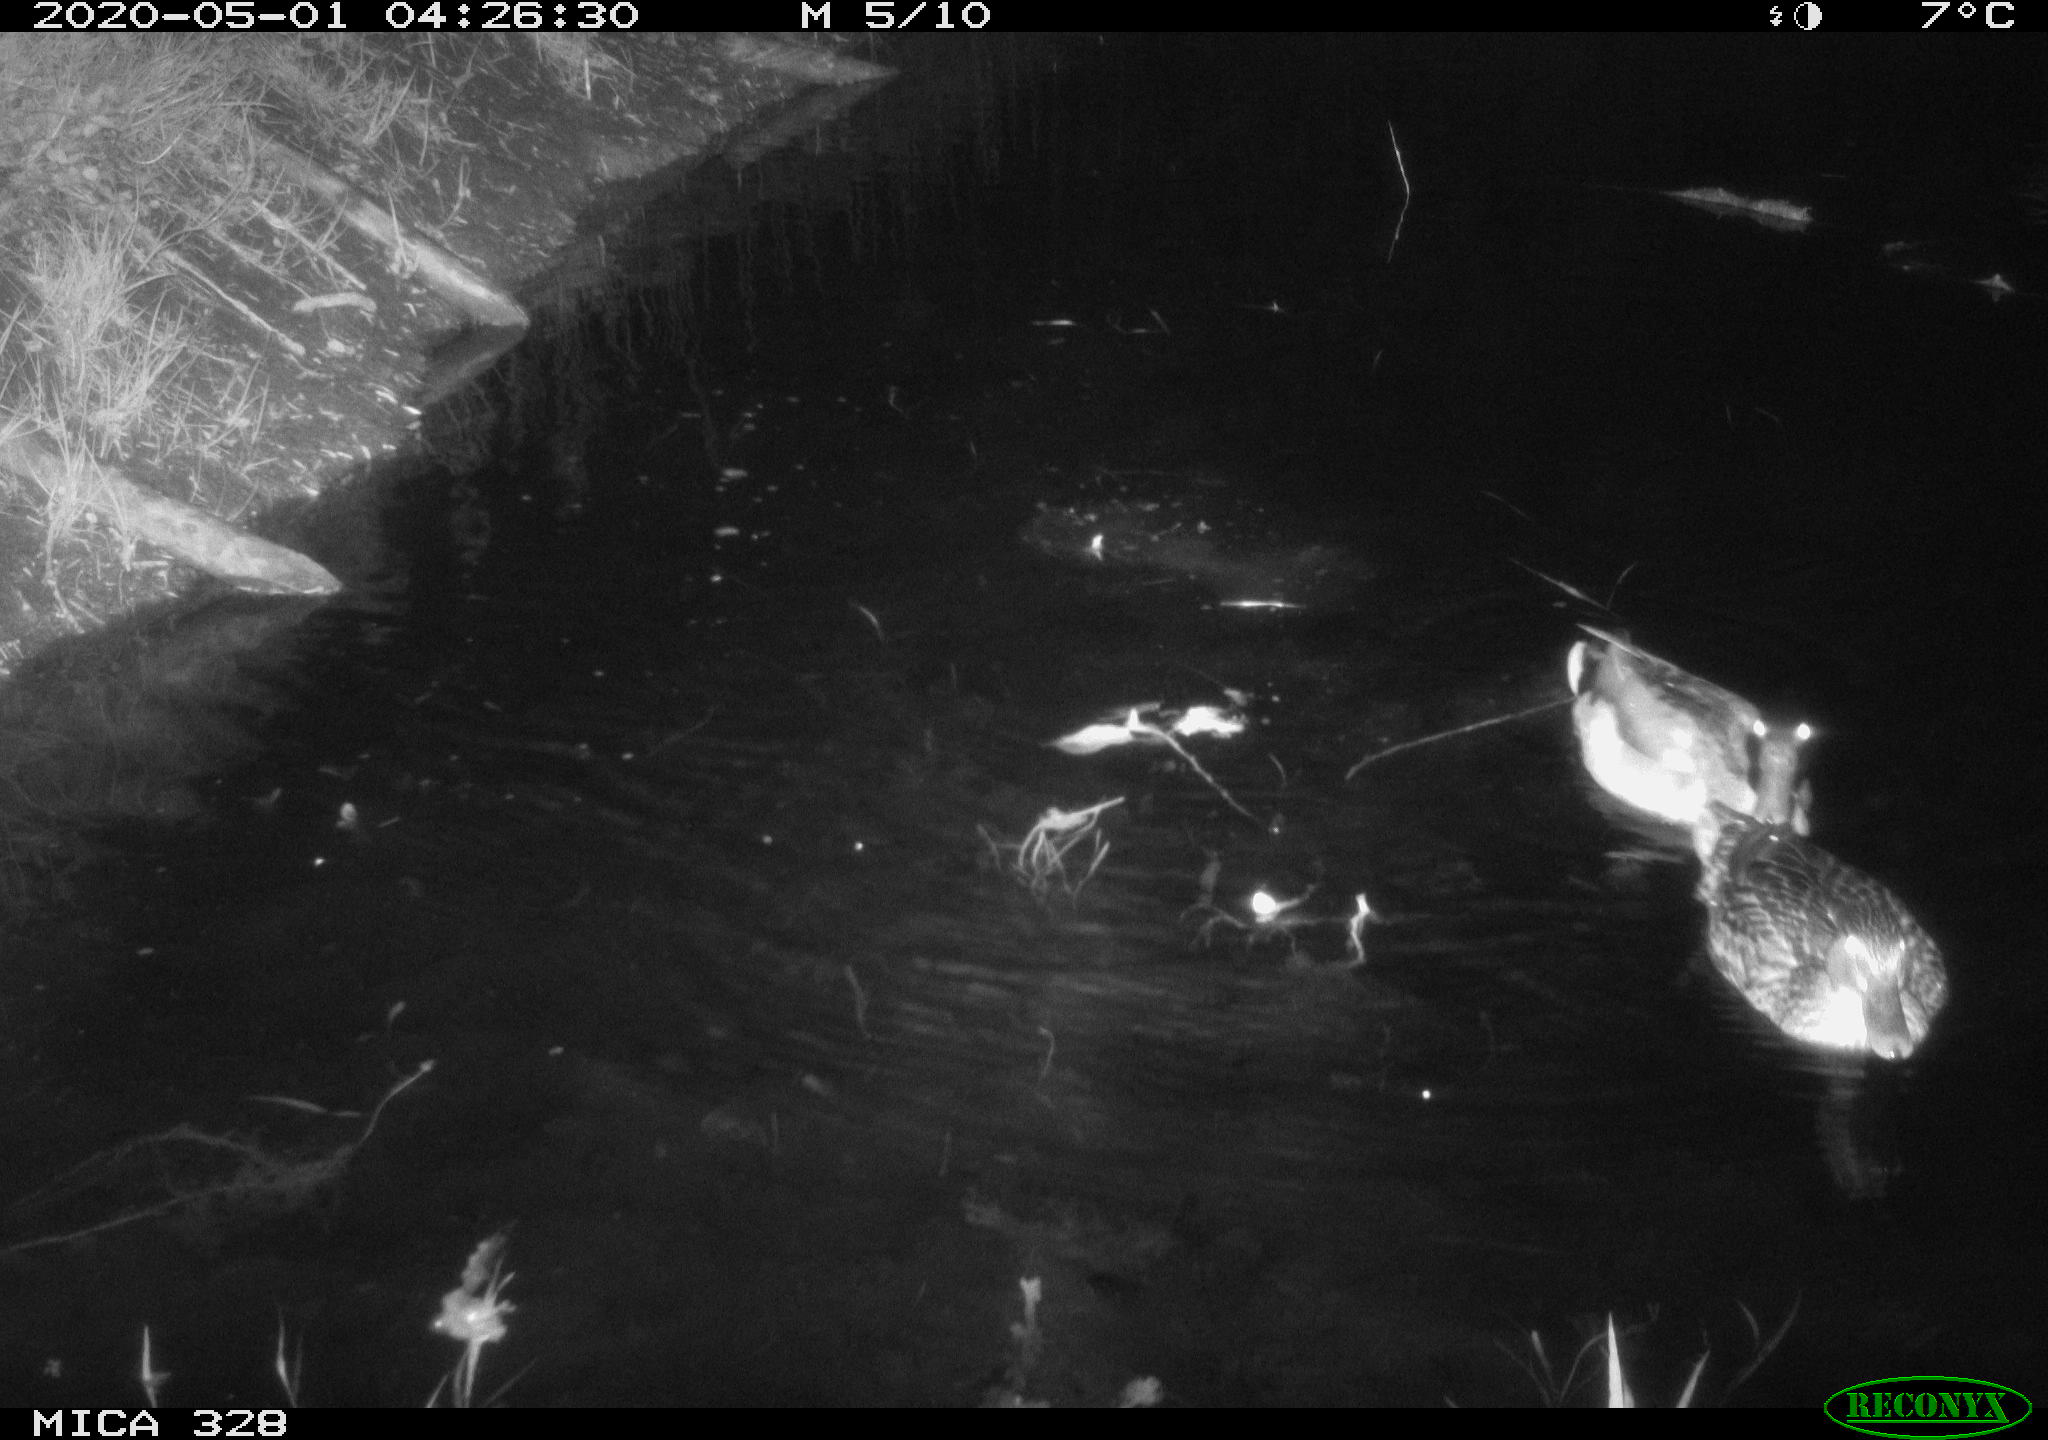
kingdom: Animalia
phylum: Chordata
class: Aves
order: Anseriformes
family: Anatidae
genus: Anas
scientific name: Anas platyrhynchos
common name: Mallard
